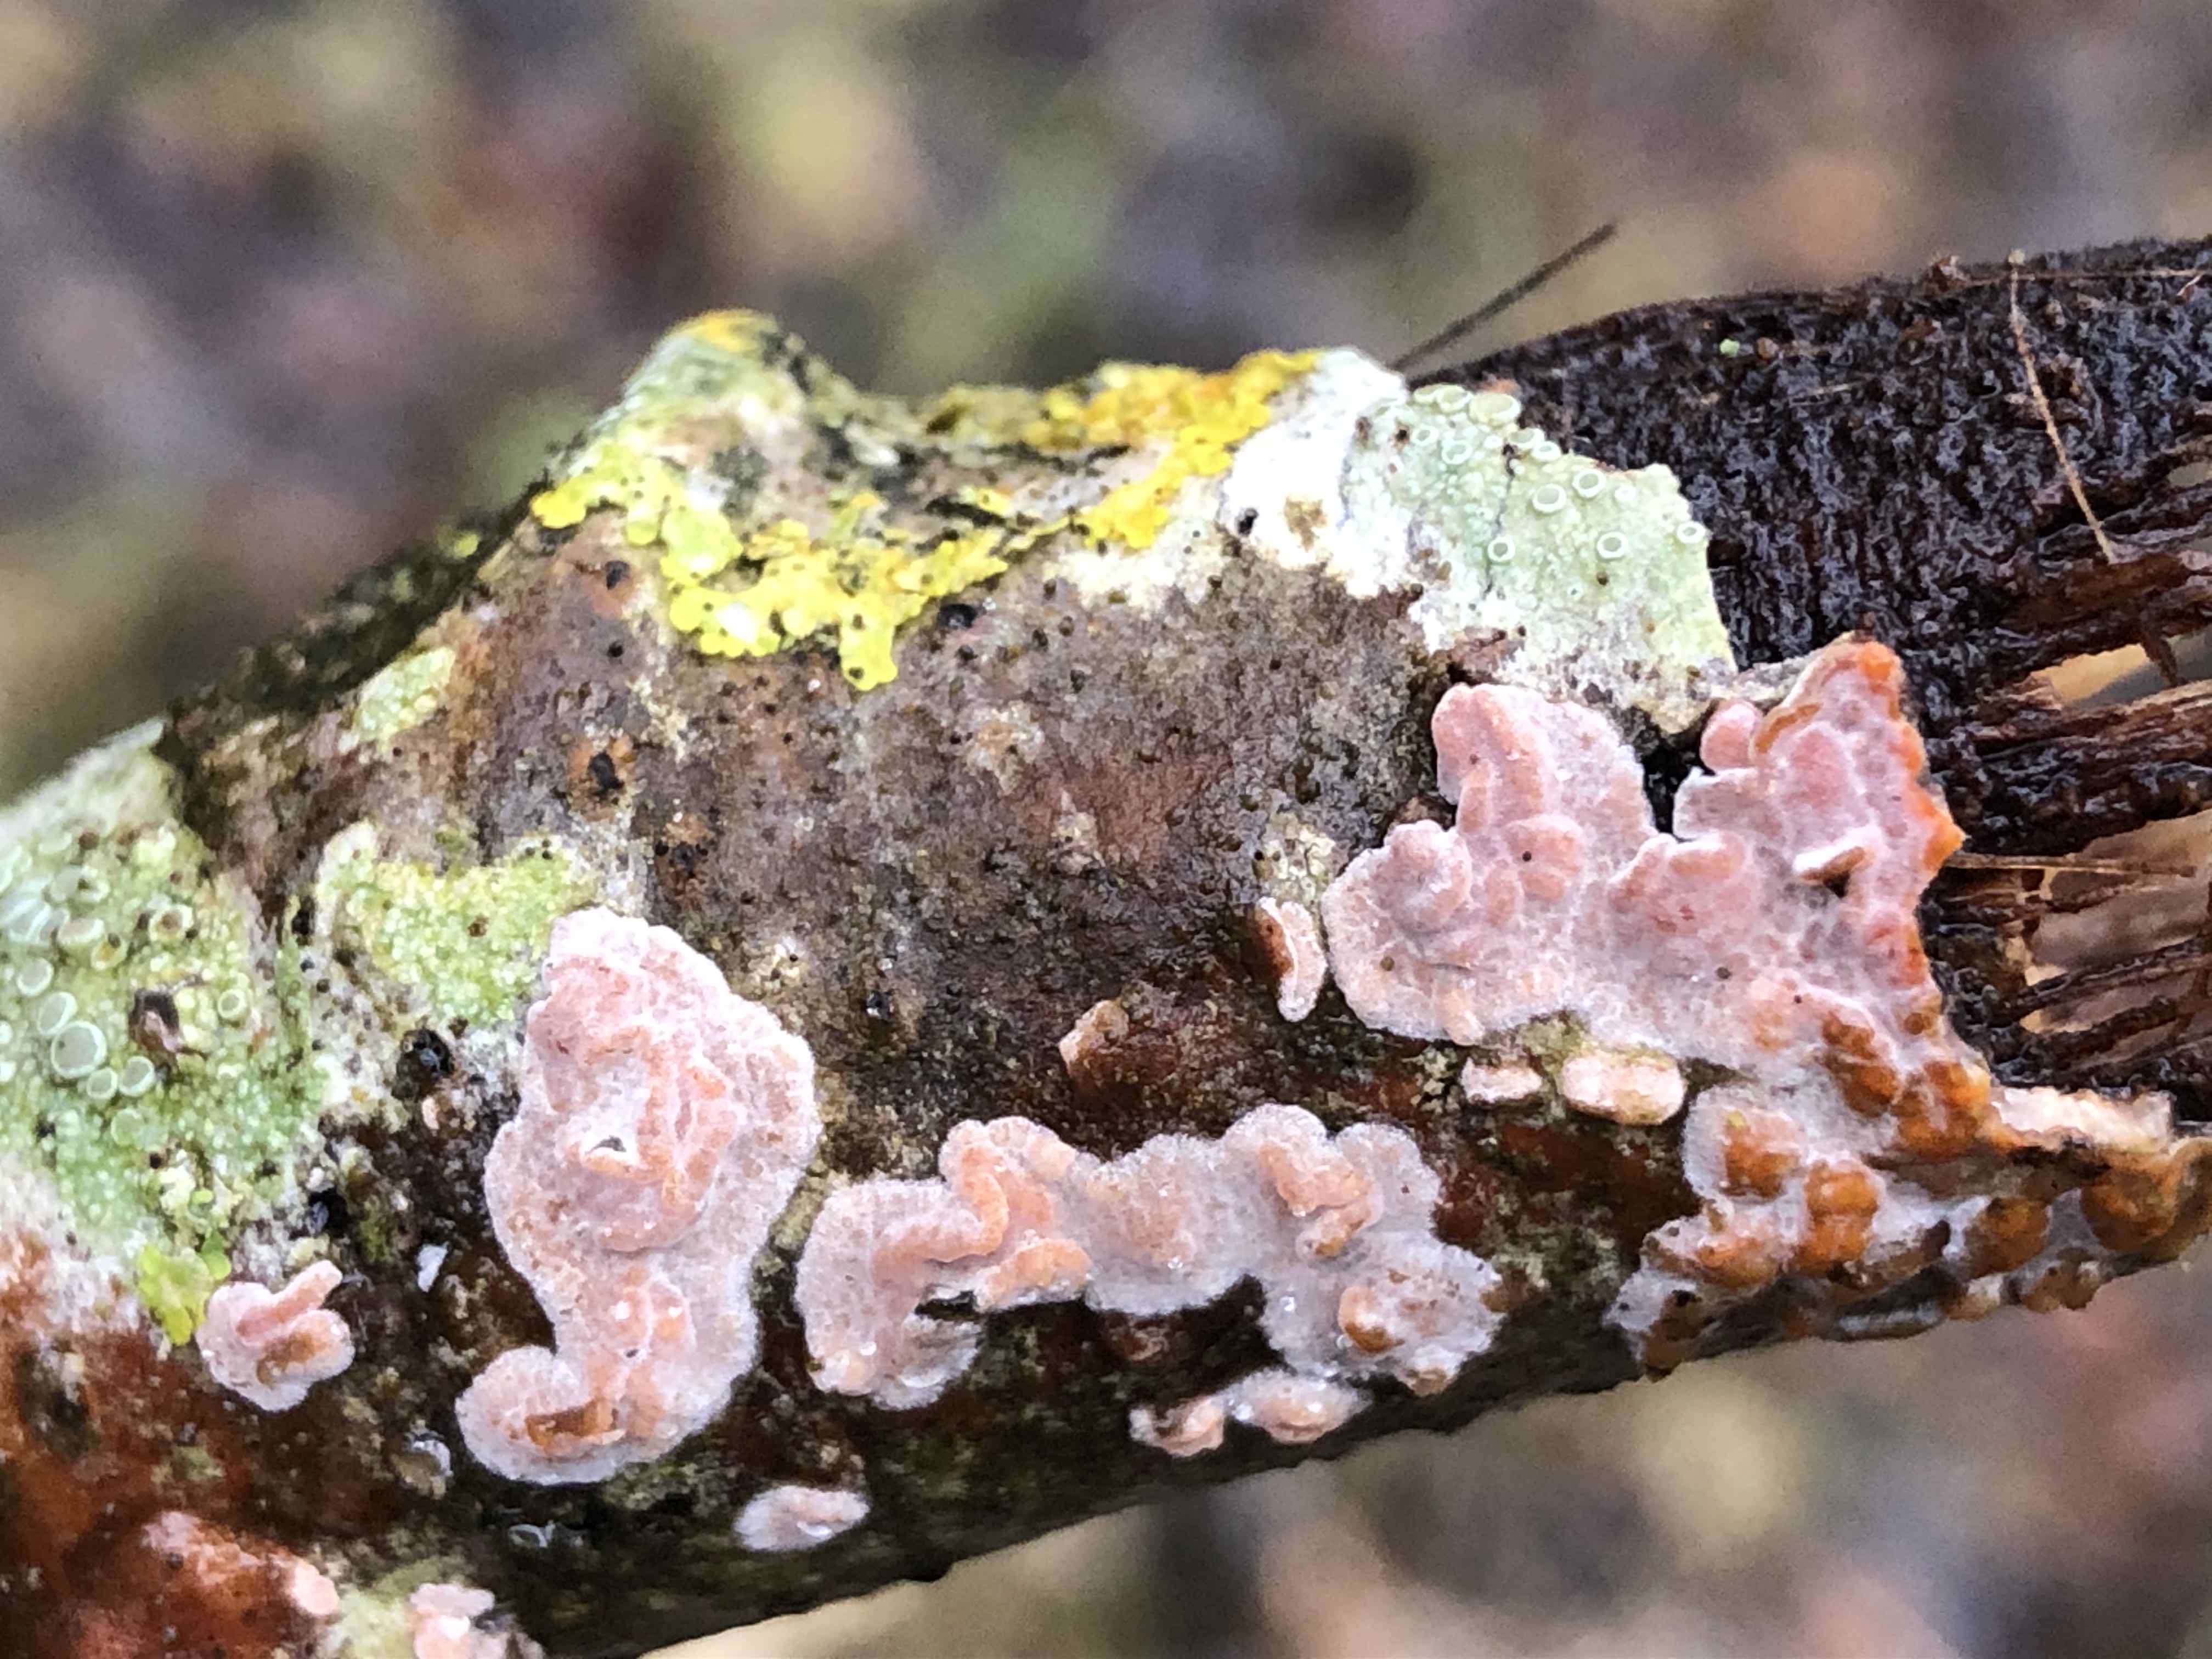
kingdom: Fungi
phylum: Basidiomycota
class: Agaricomycetes
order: Russulales
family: Peniophoraceae
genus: Peniophora
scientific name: Peniophora polygonia
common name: polygon-voksskind
